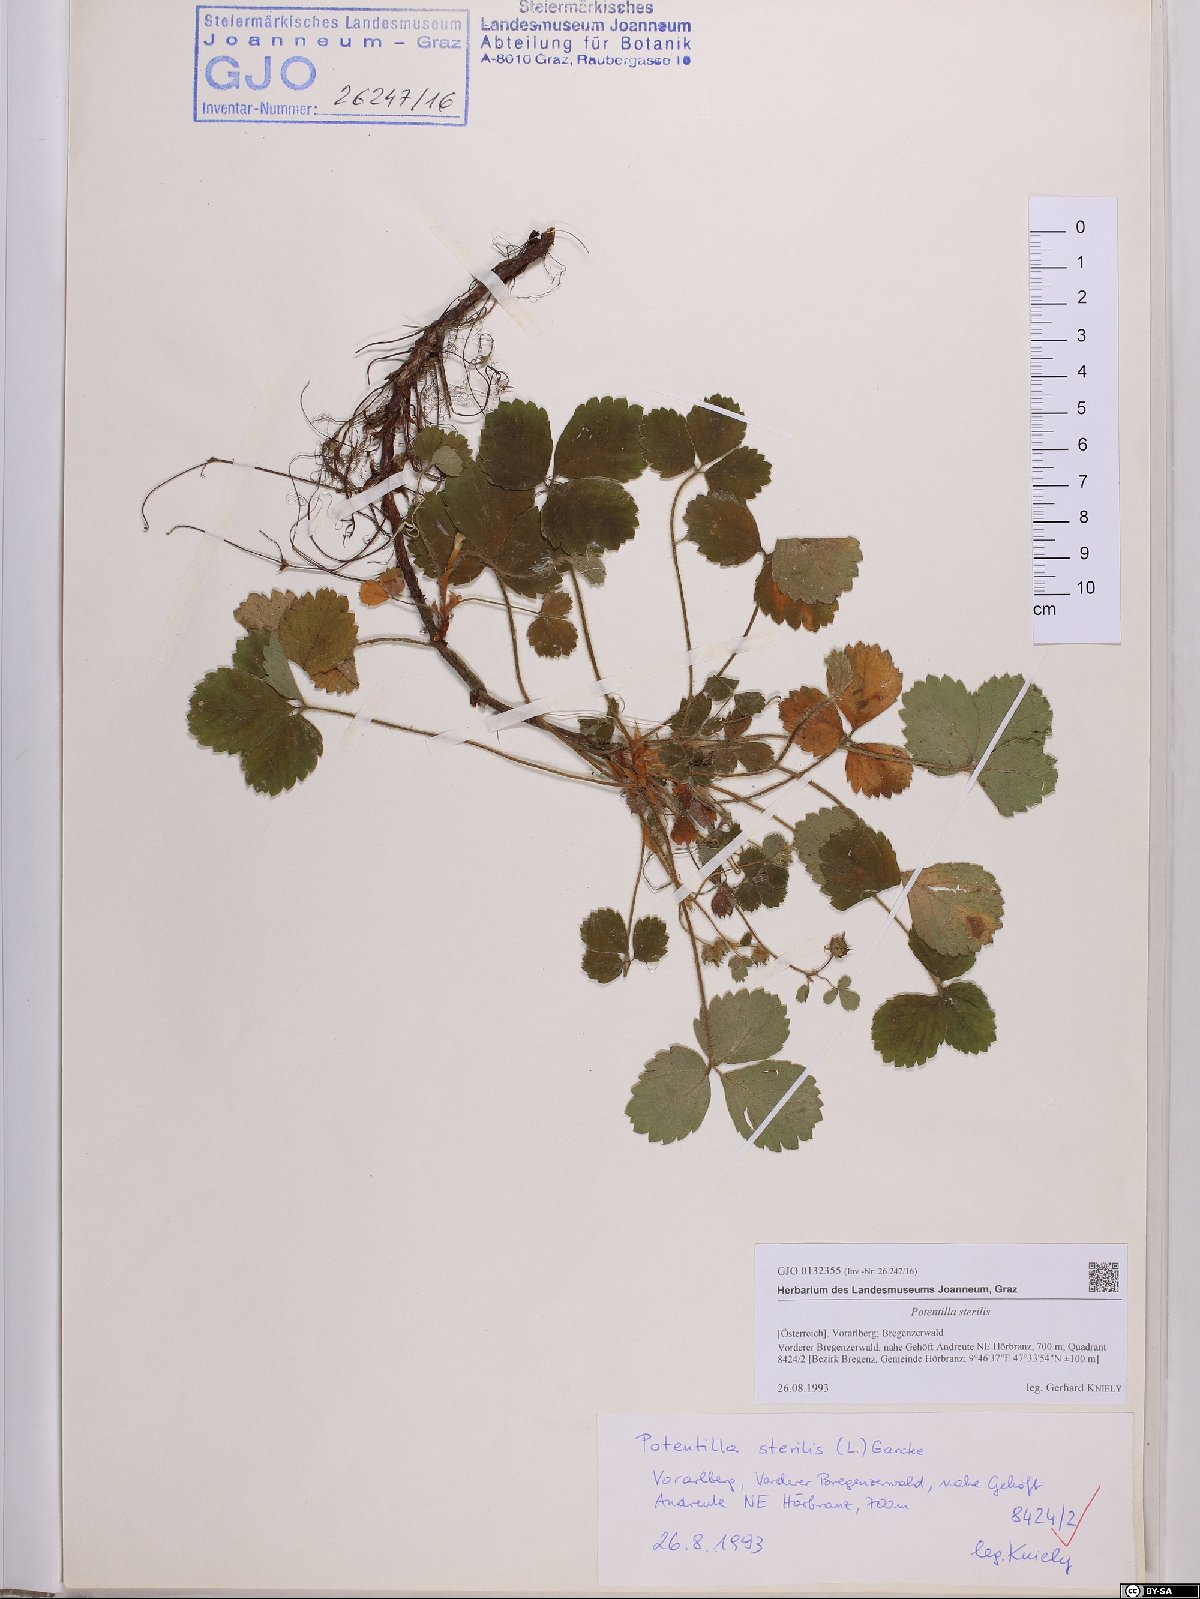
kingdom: Plantae
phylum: Tracheophyta
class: Magnoliopsida
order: Rosales
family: Rosaceae
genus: Potentilla
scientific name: Potentilla sterilis
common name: Barren strawberry
